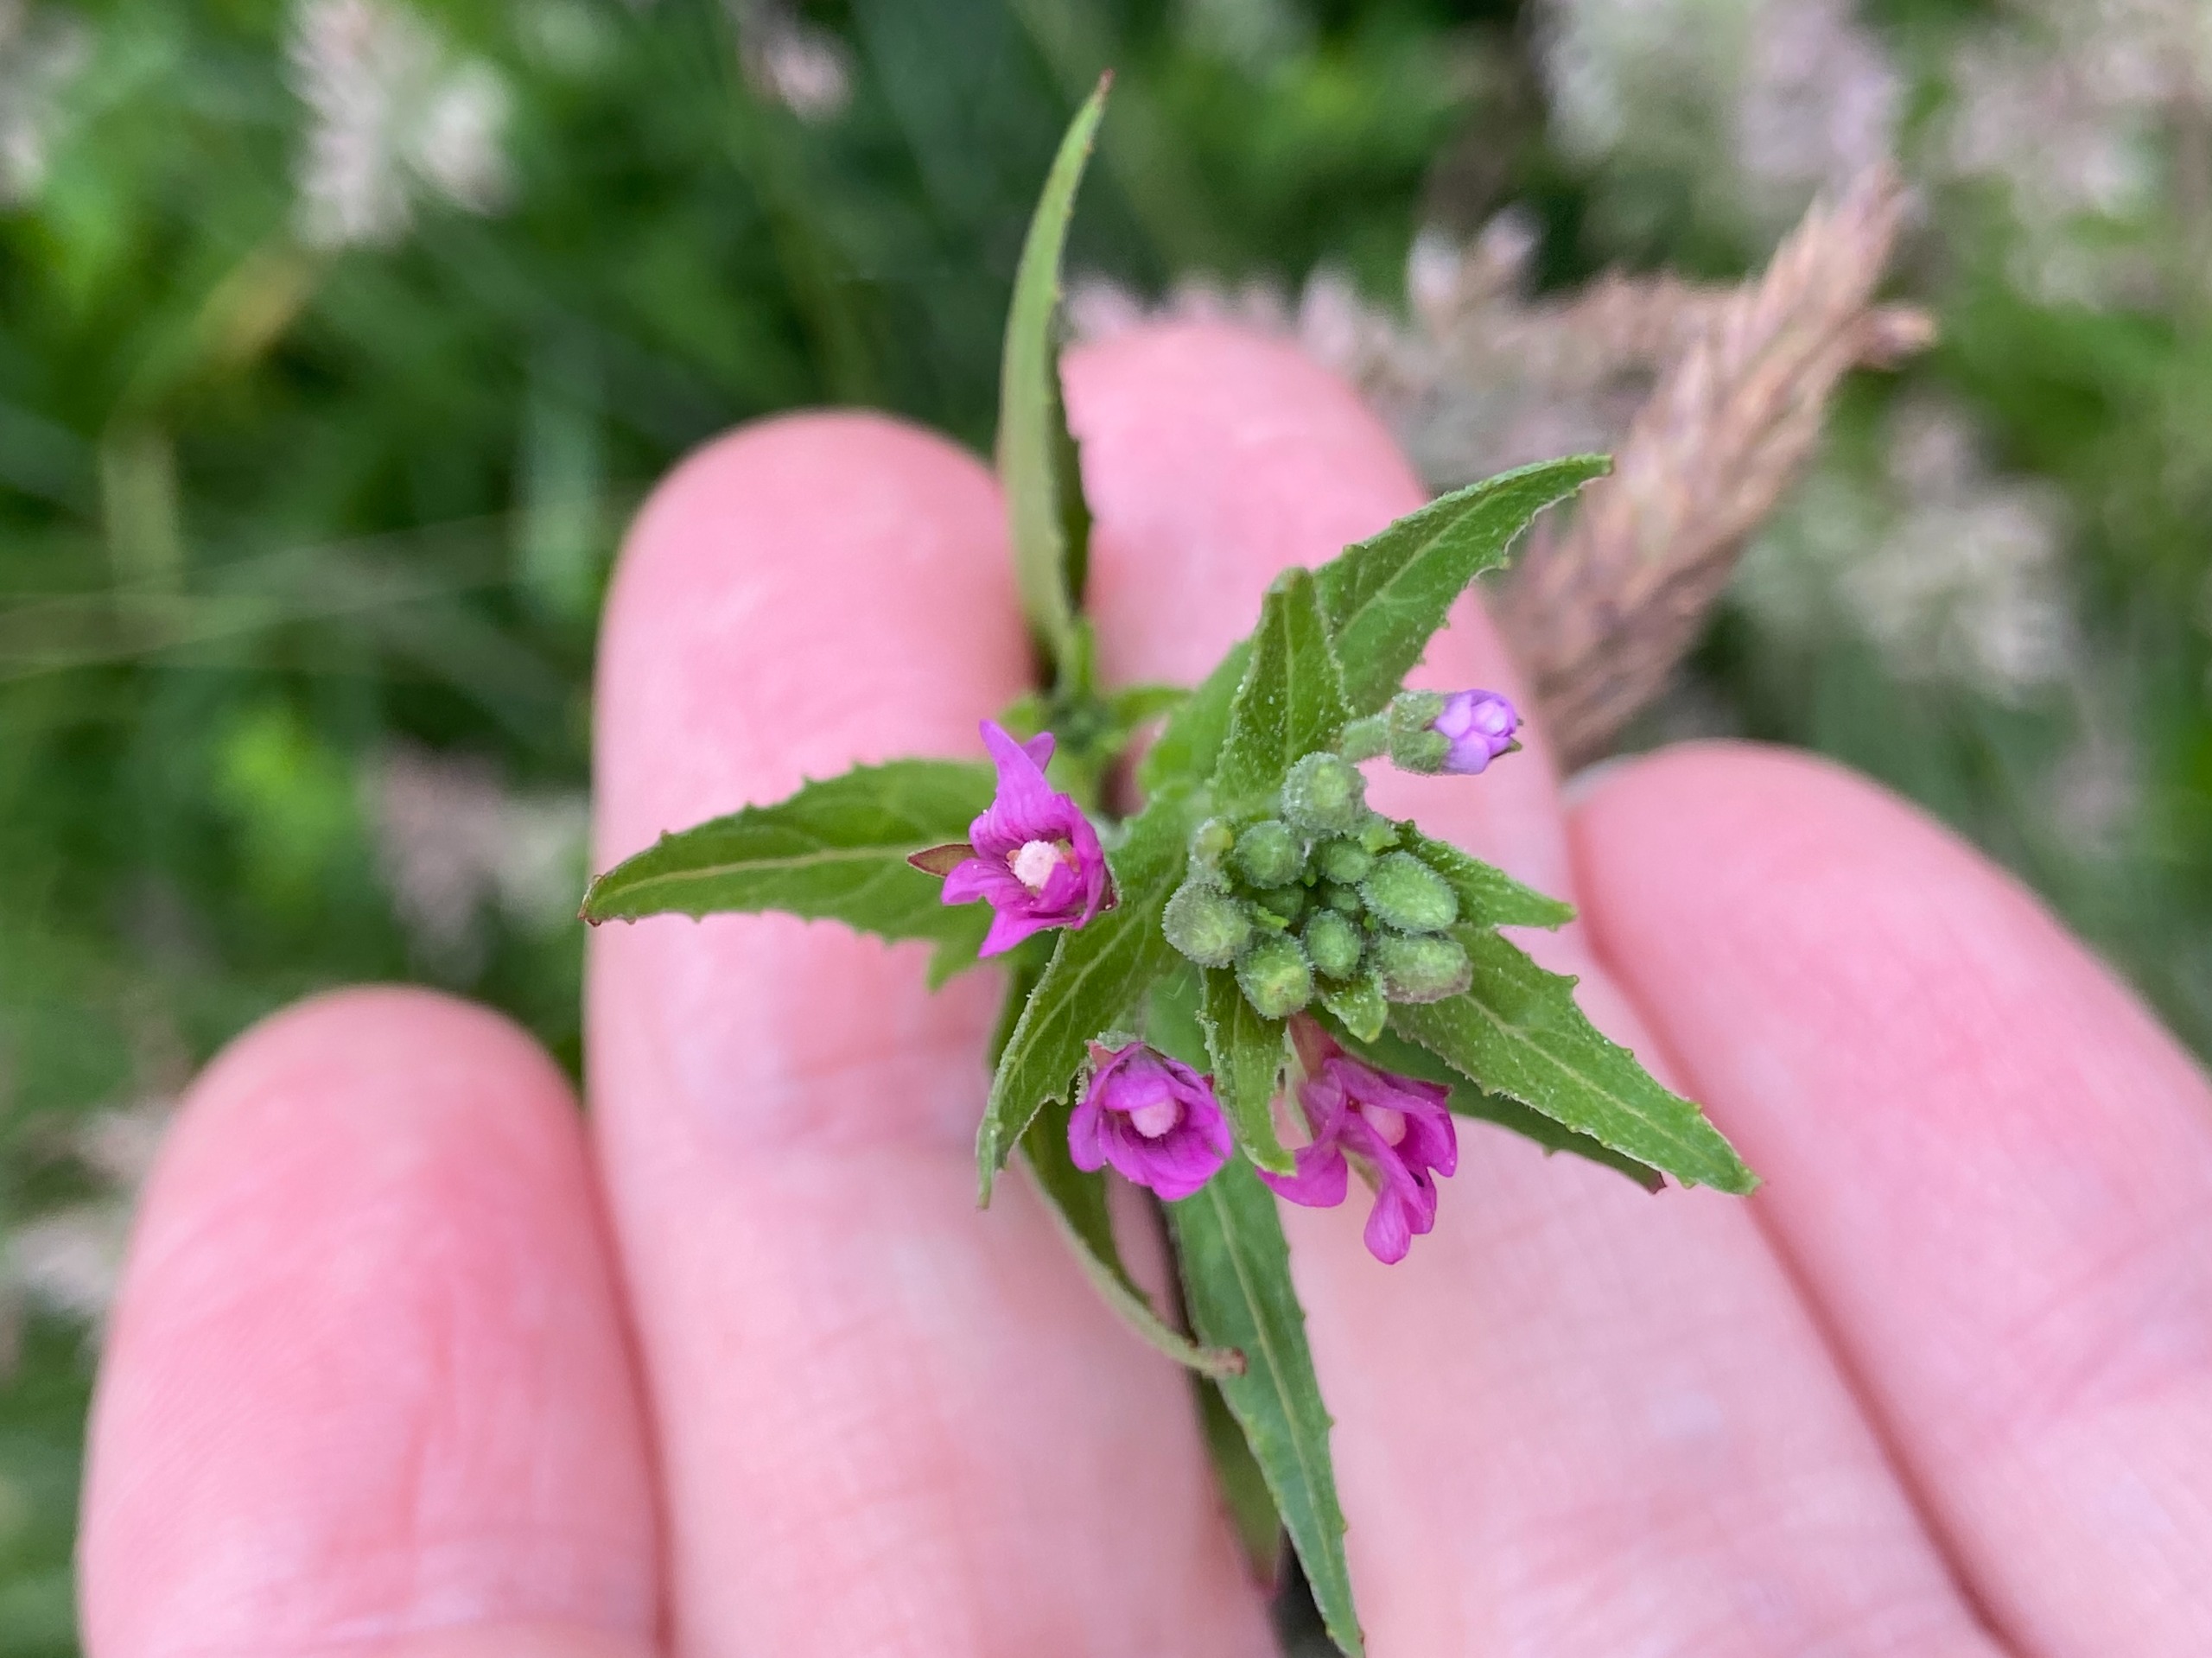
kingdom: Plantae
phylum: Tracheophyta
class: Magnoliopsida
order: Myrtales
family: Onagraceae
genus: Epilobium
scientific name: Epilobium
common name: Dueurtslægten
